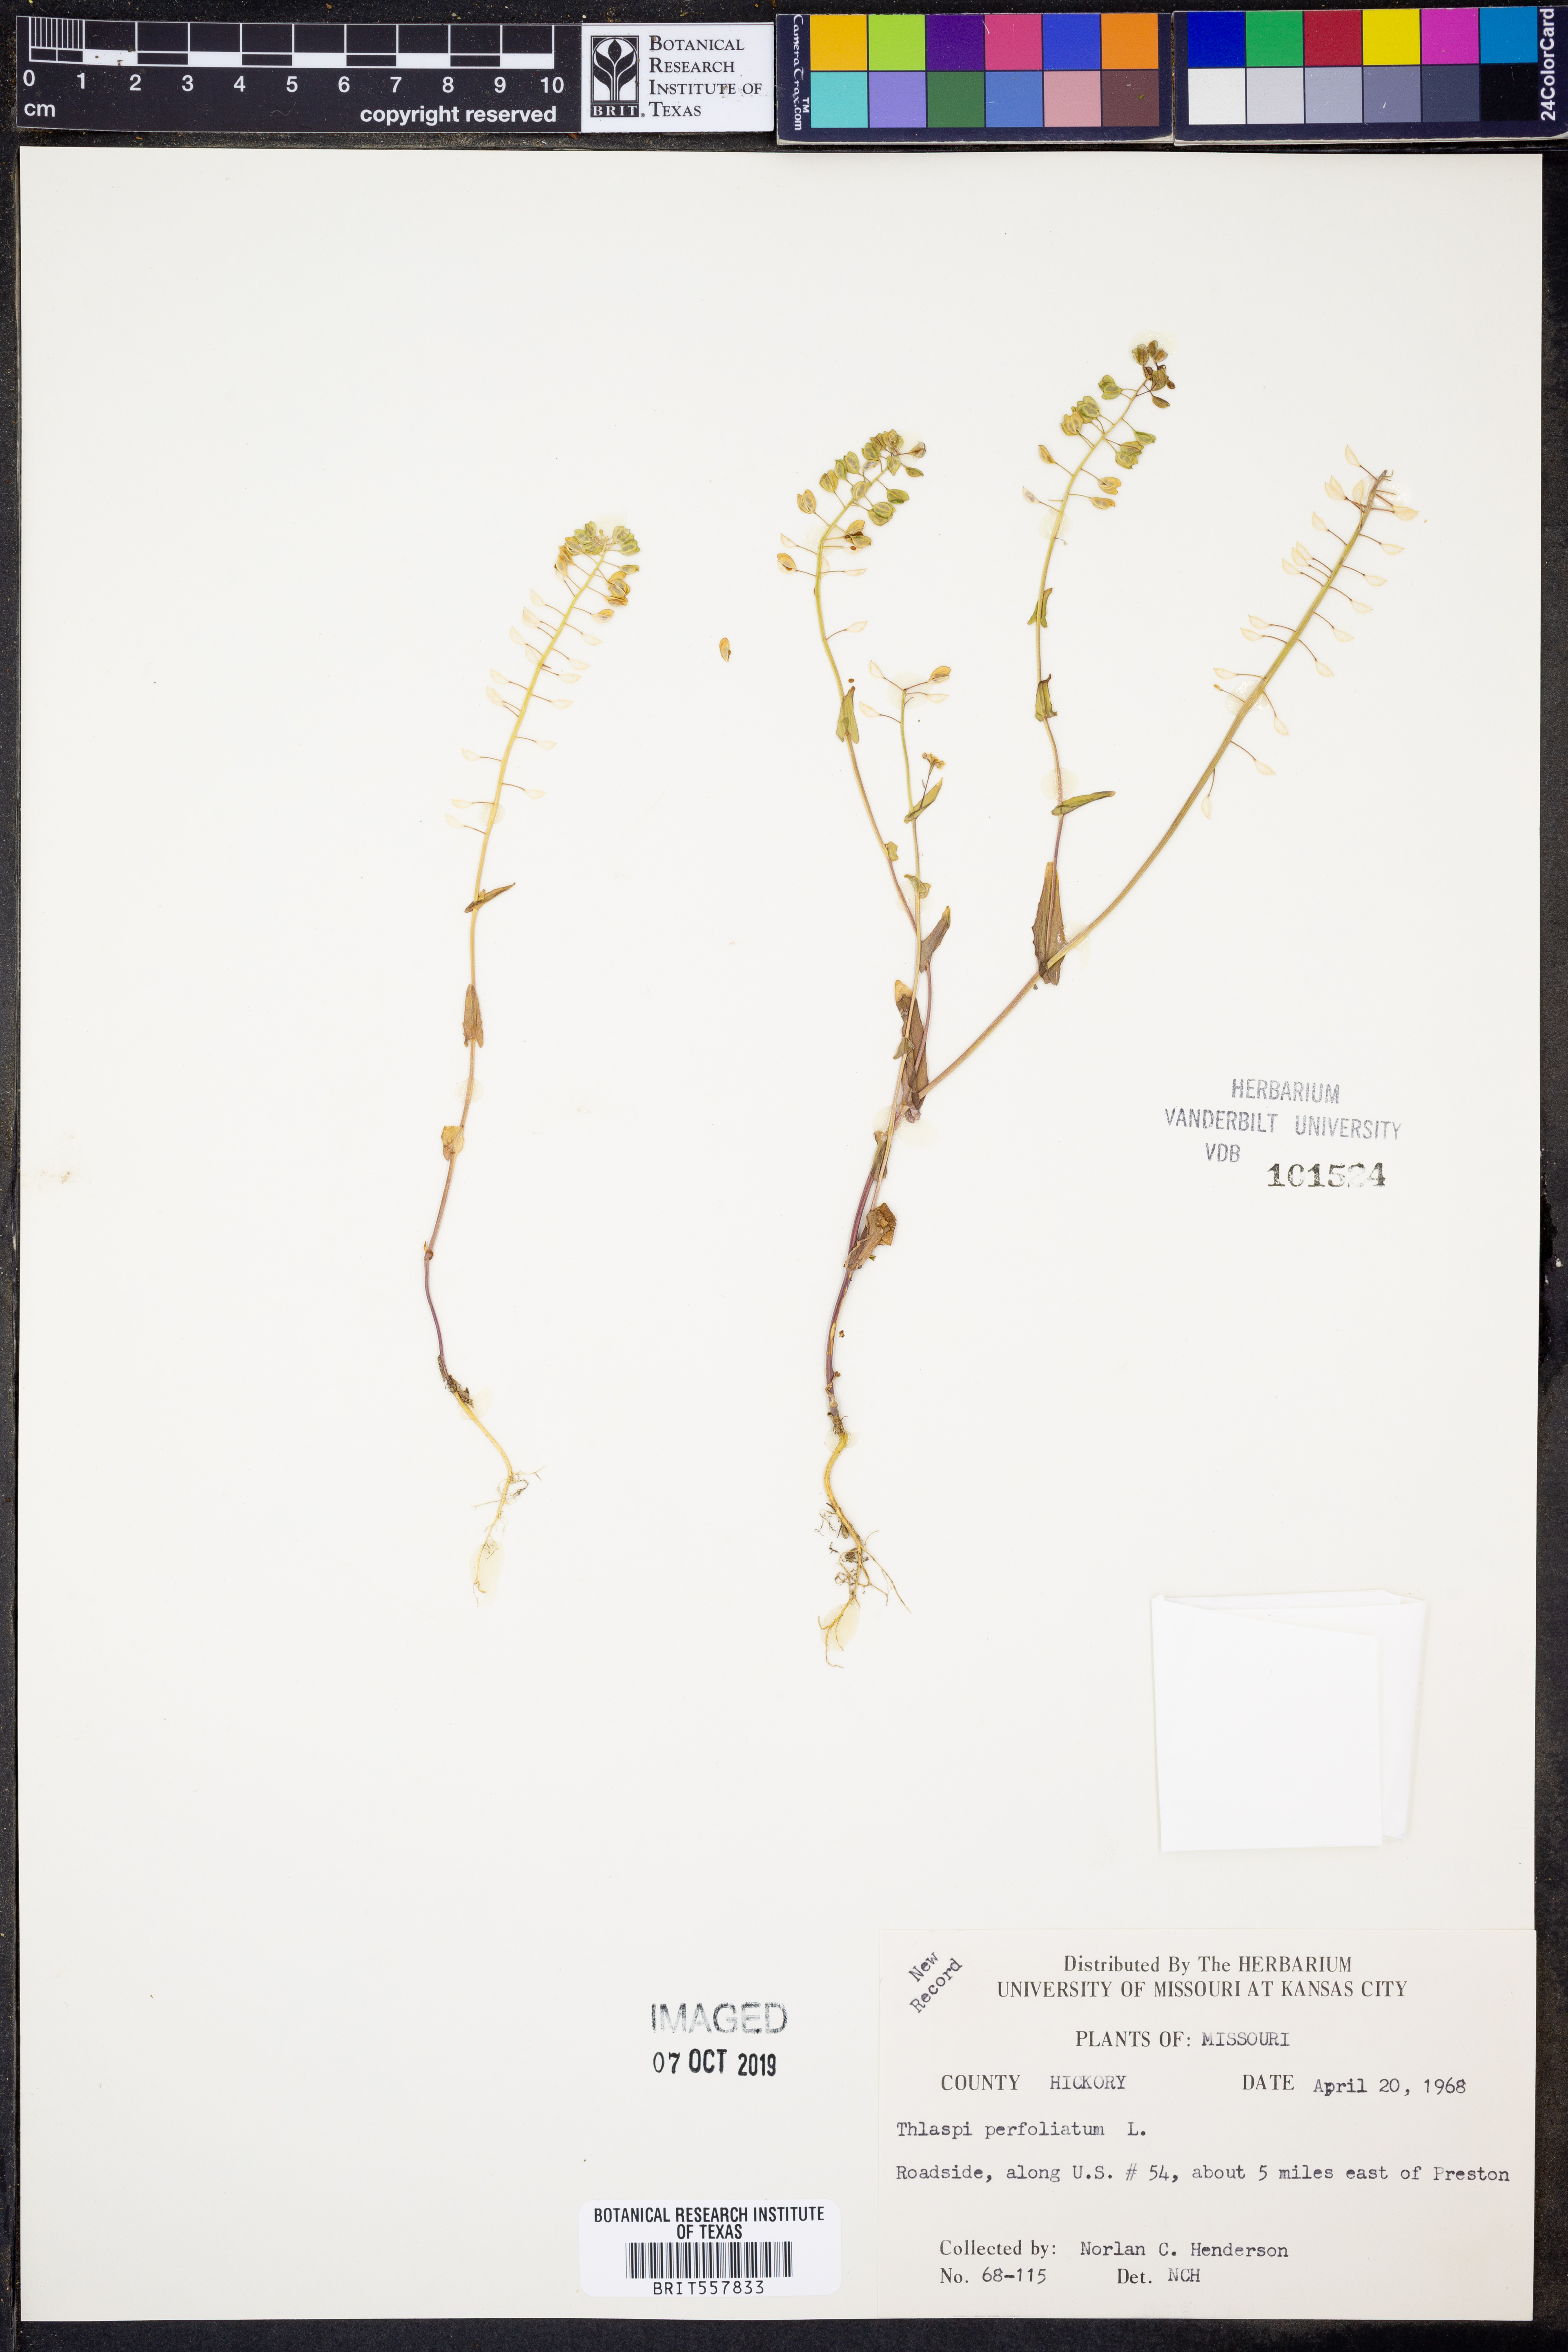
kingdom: Plantae
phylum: Tracheophyta
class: Magnoliopsida
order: Brassicales
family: Brassicaceae
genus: Noccaea
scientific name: Noccaea perfoliata
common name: Perfoliate pennycress
